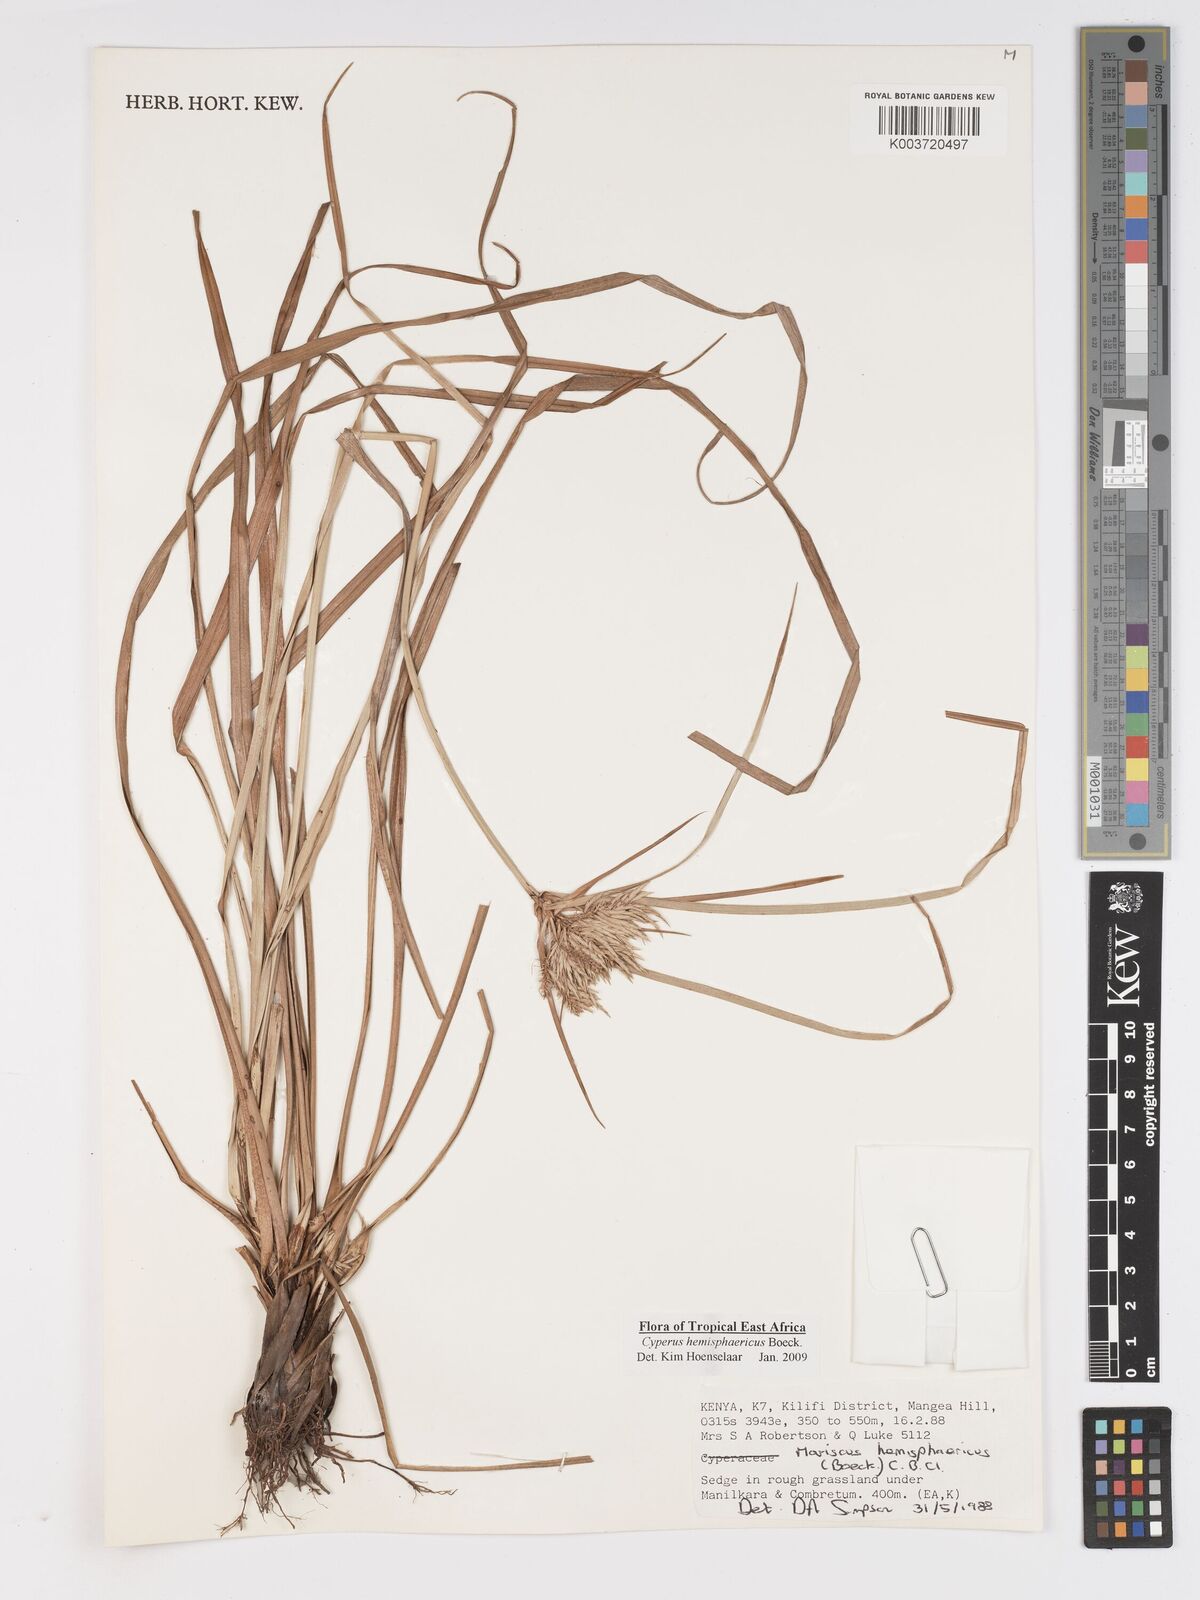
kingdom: Plantae
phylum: Tracheophyta
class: Liliopsida
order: Poales
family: Cyperaceae
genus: Cyperus
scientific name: Cyperus hemisphaericus
